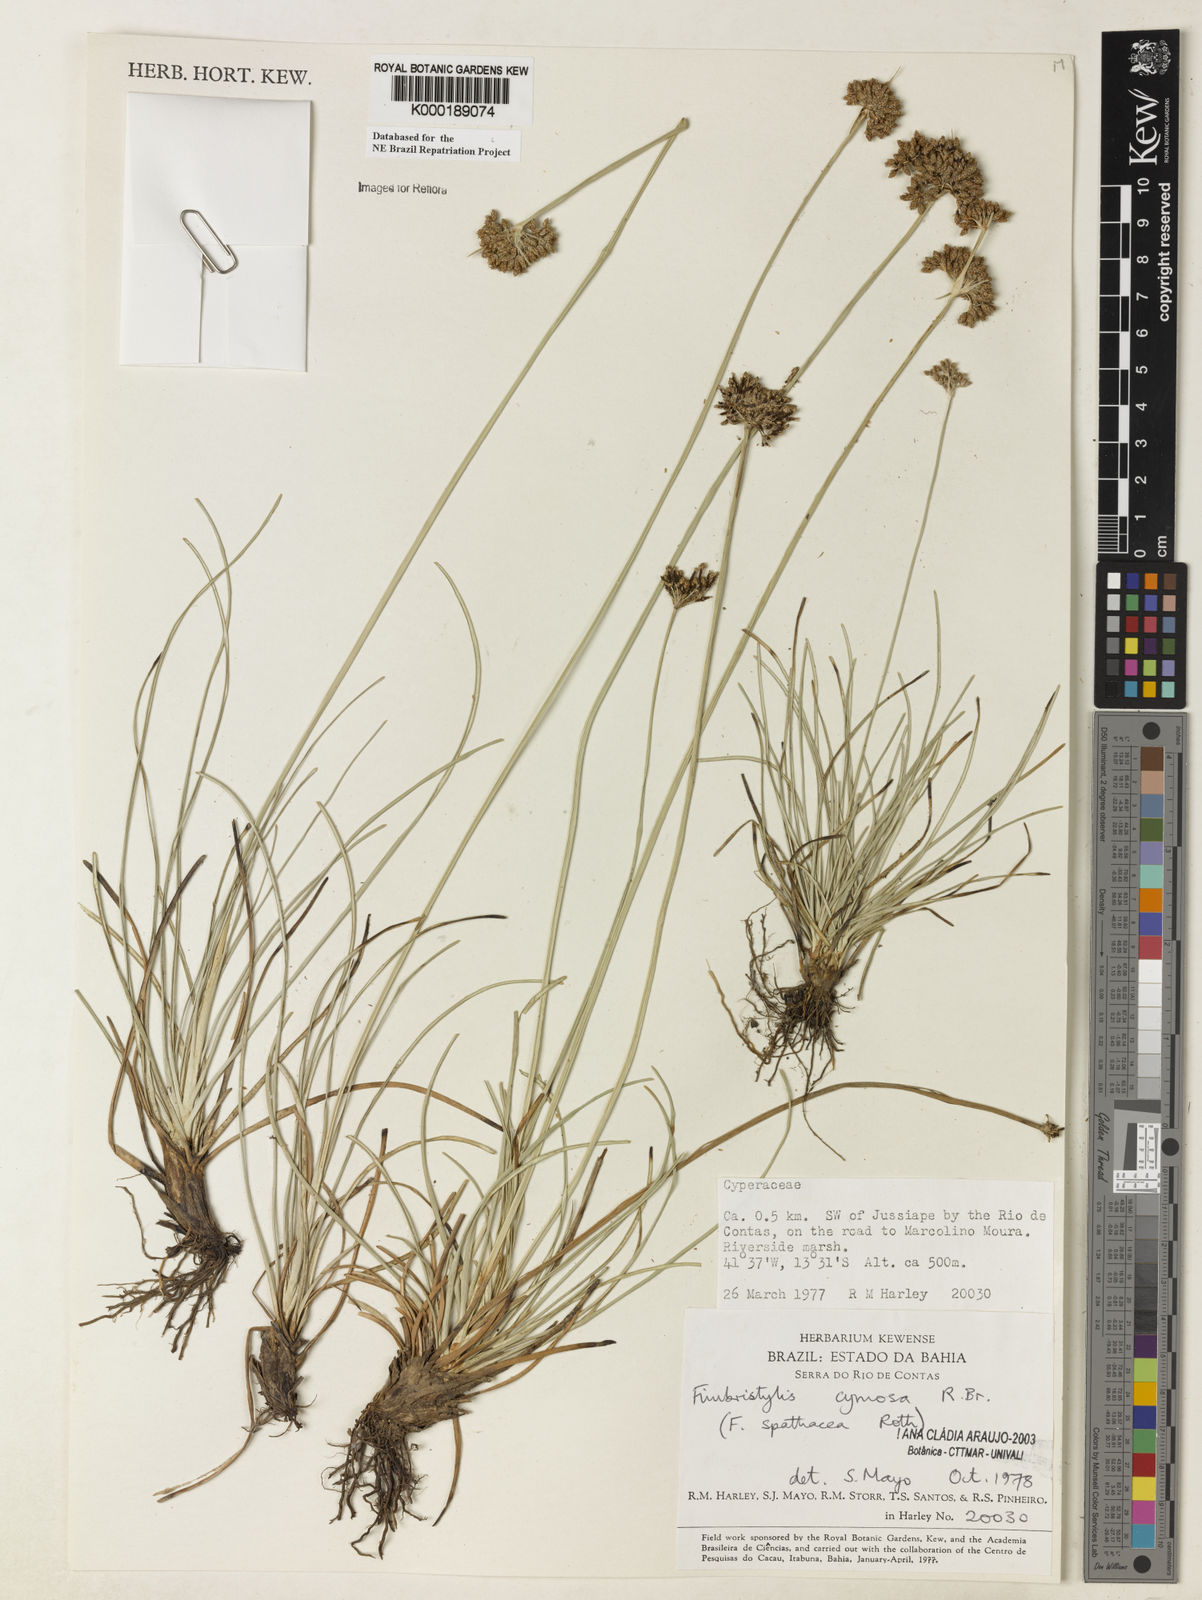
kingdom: Plantae
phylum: Tracheophyta
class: Liliopsida
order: Poales
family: Cyperaceae
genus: Fimbristylis
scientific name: Fimbristylis cymosa
